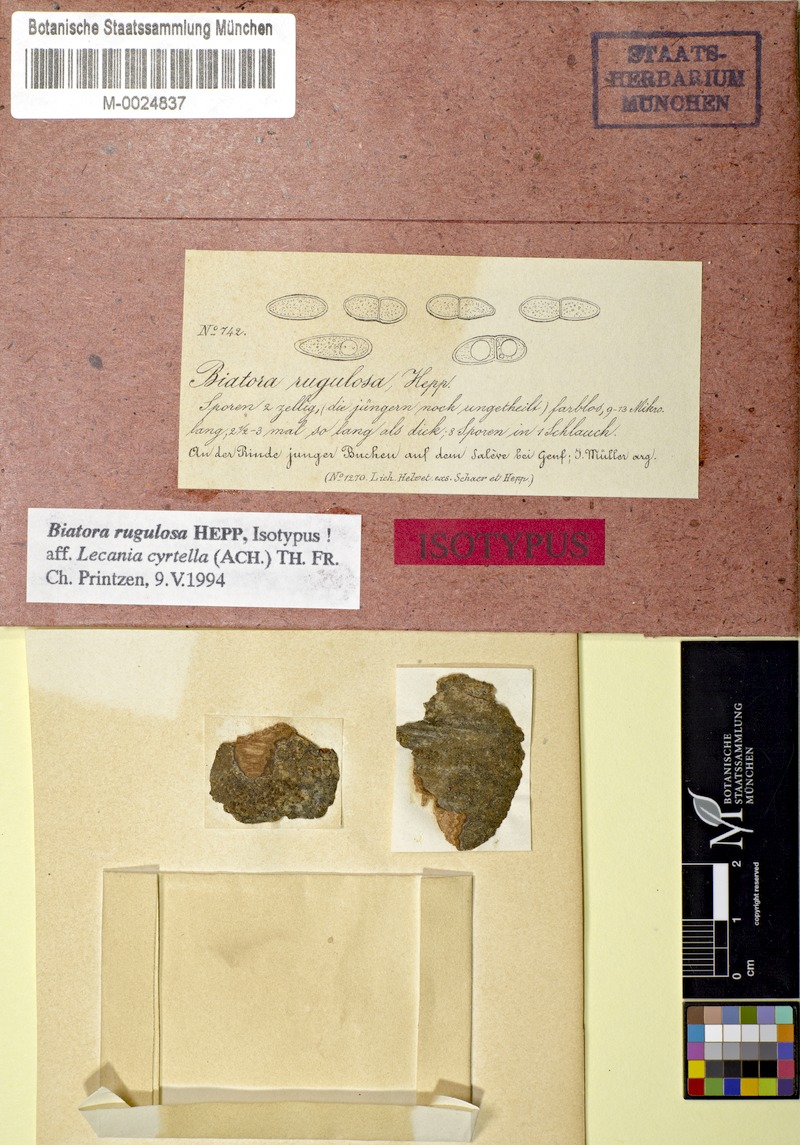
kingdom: Fungi
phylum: Ascomycota
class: Lecanoromycetes
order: Lecanorales
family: Catillariaceae
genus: Catillaria
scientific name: Catillaria rugulosa
